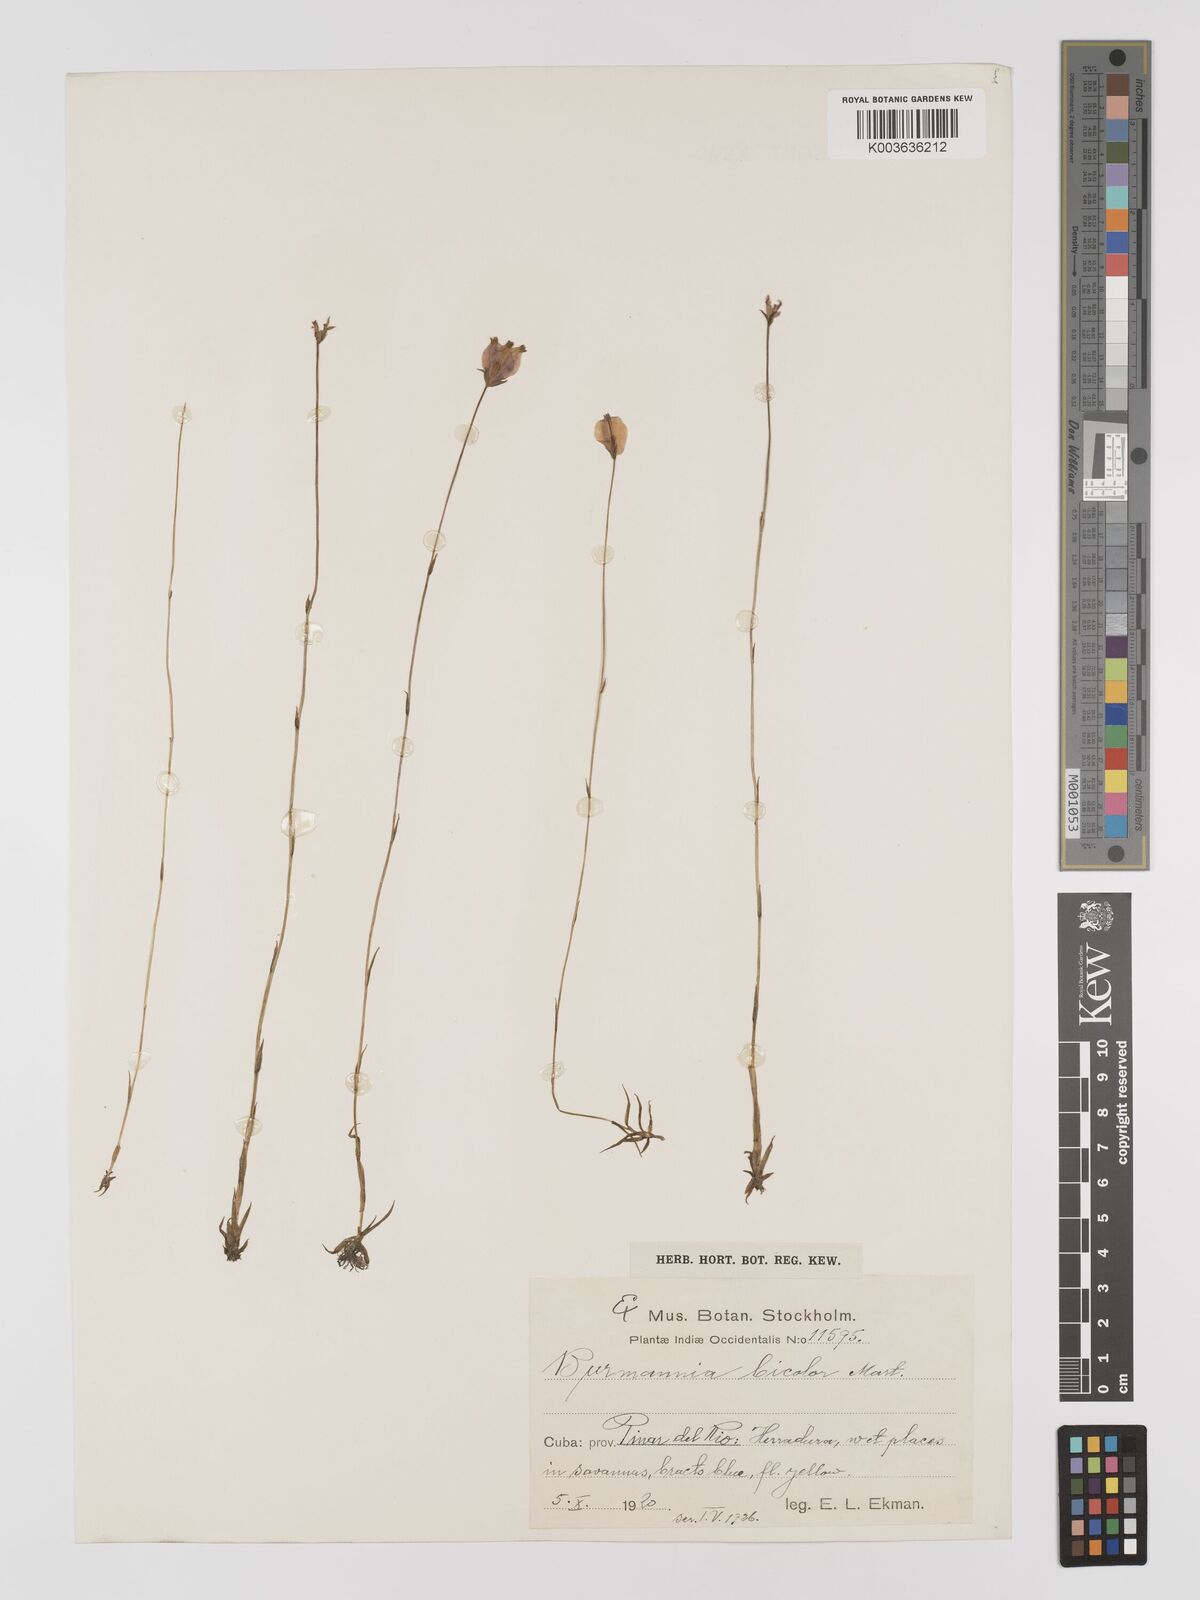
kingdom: Plantae
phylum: Tracheophyta
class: Liliopsida
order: Dioscoreales
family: Burmanniaceae
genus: Burmannia
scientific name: Burmannia bicolor
